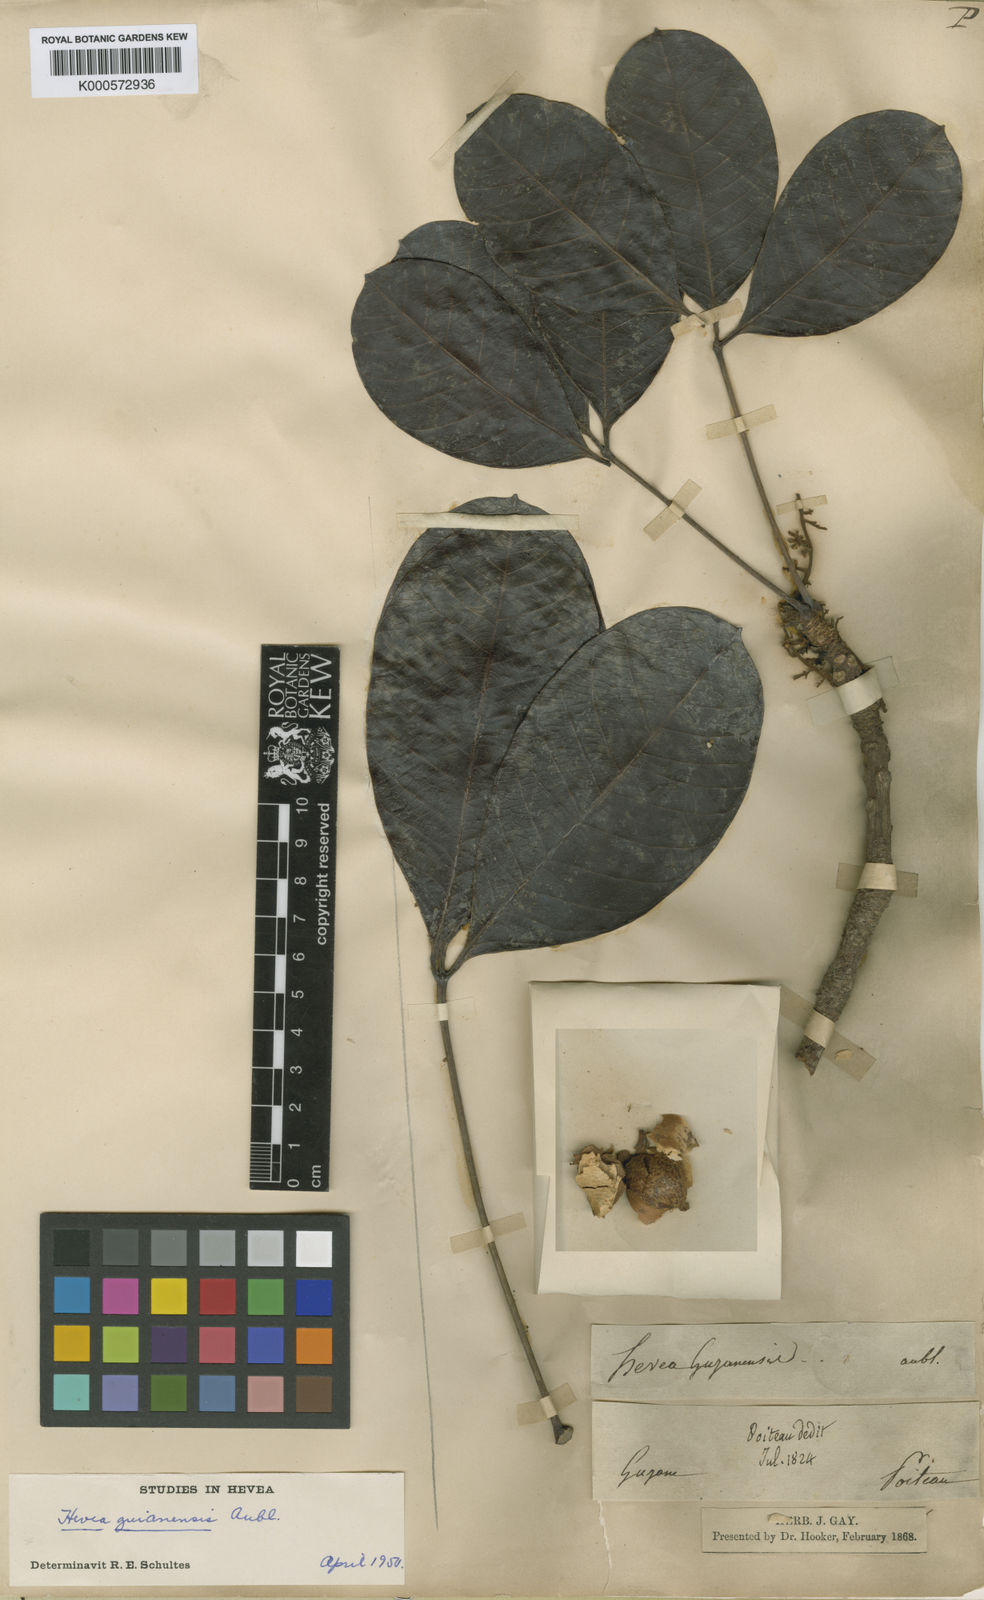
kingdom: Plantae
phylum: Tracheophyta
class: Magnoliopsida
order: Malpighiales
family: Euphorbiaceae
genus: Hevea
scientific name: Hevea guianensis
